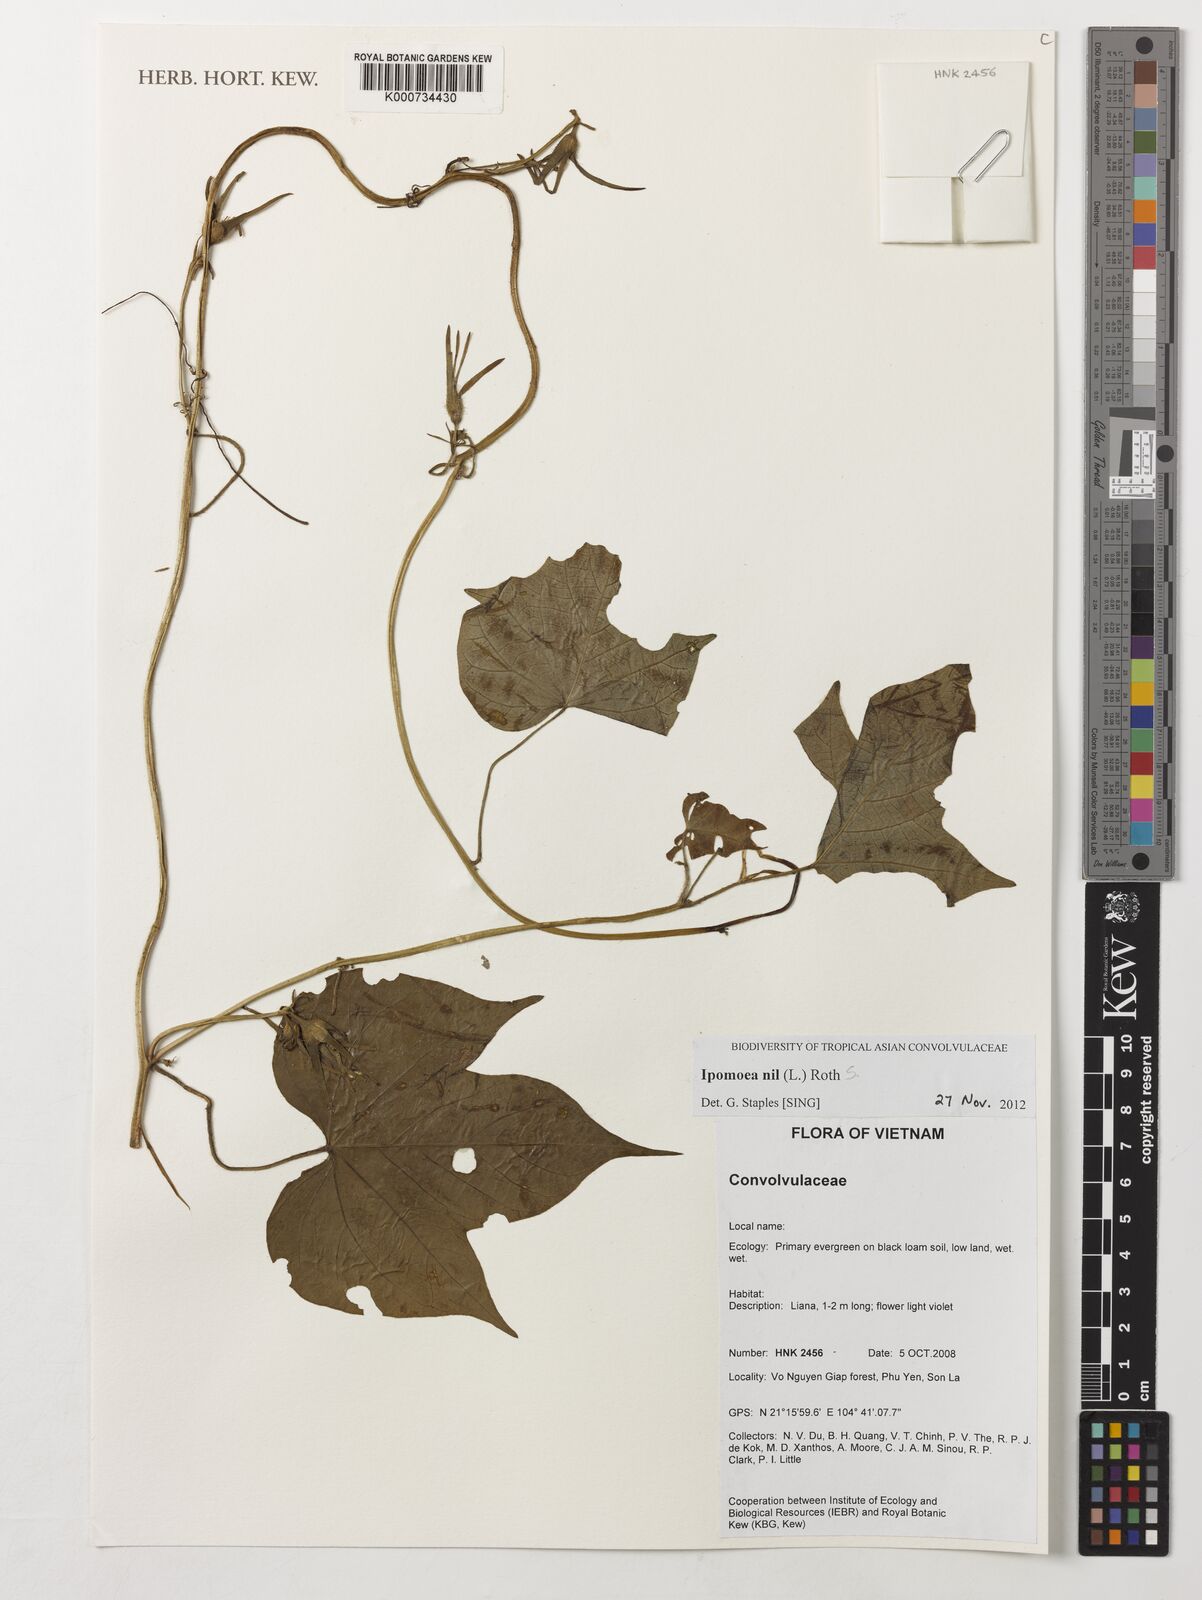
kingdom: Plantae
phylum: Tracheophyta
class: Magnoliopsida
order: Solanales
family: Convolvulaceae
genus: Ipomoea
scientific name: Ipomoea nil
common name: Japanese morning-glory
